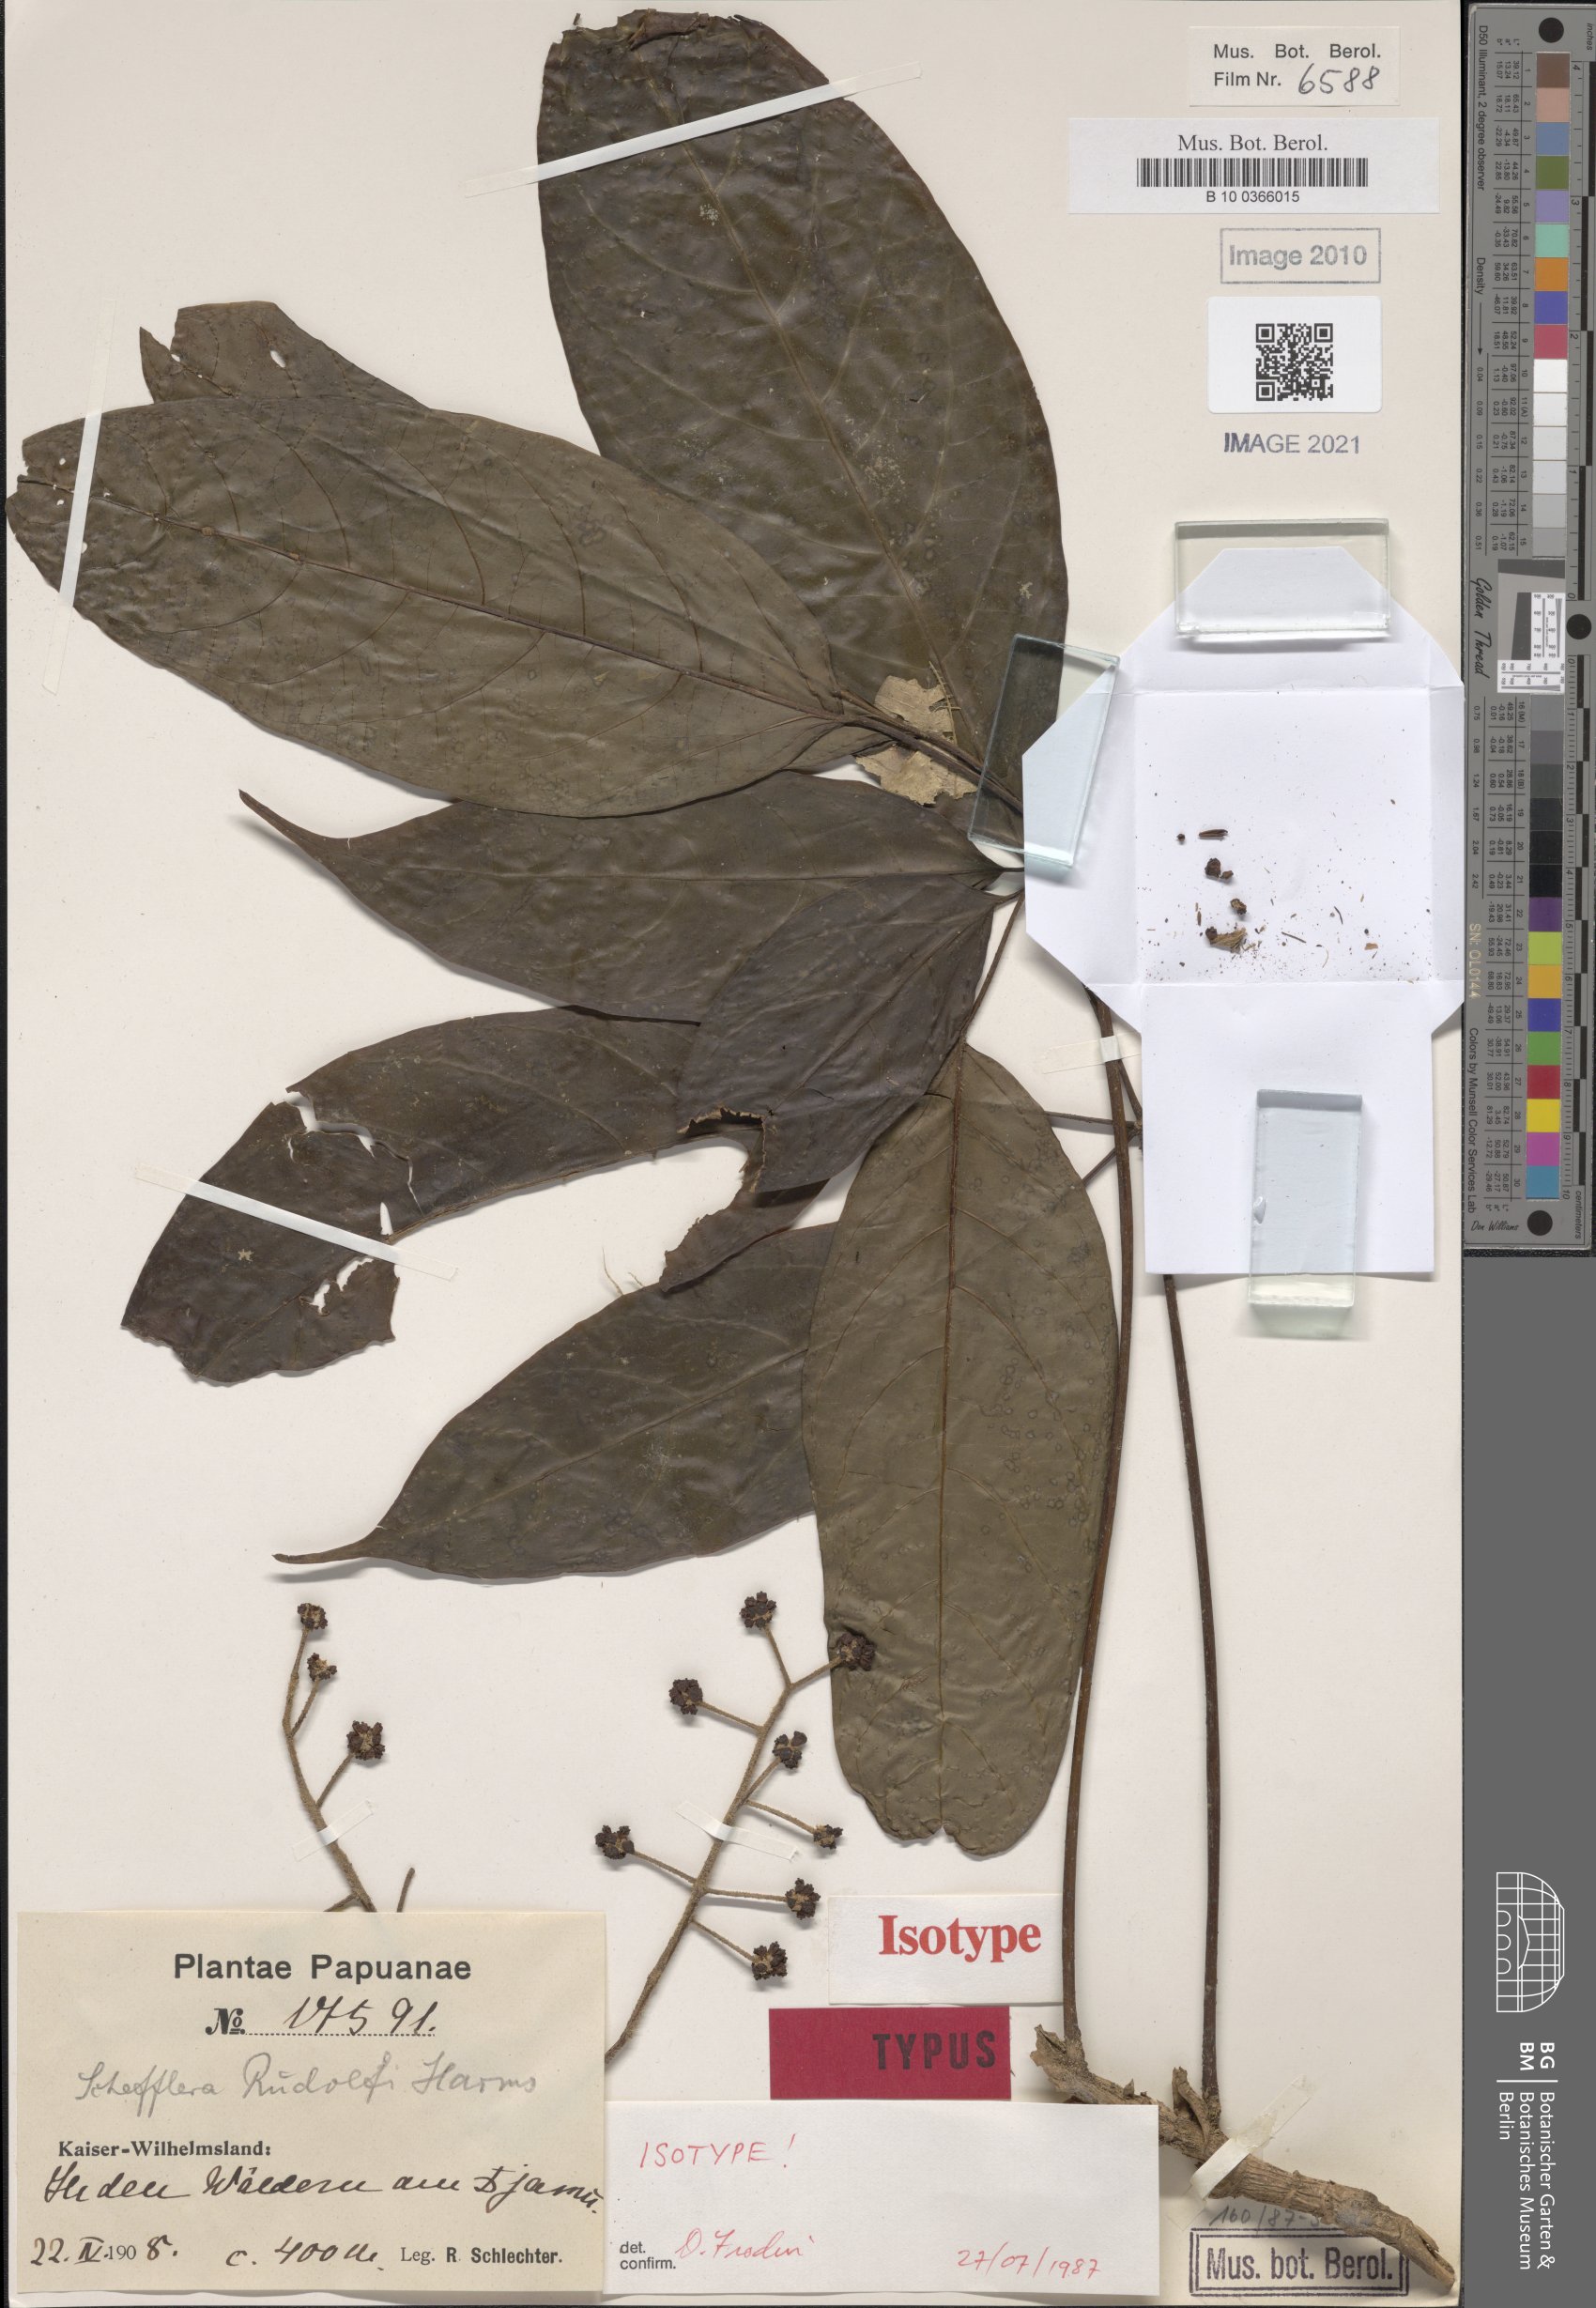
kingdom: Plantae
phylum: Tracheophyta
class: Magnoliopsida
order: Apiales
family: Araliaceae
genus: Heptapleurum
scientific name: Heptapleurum rudolfii
